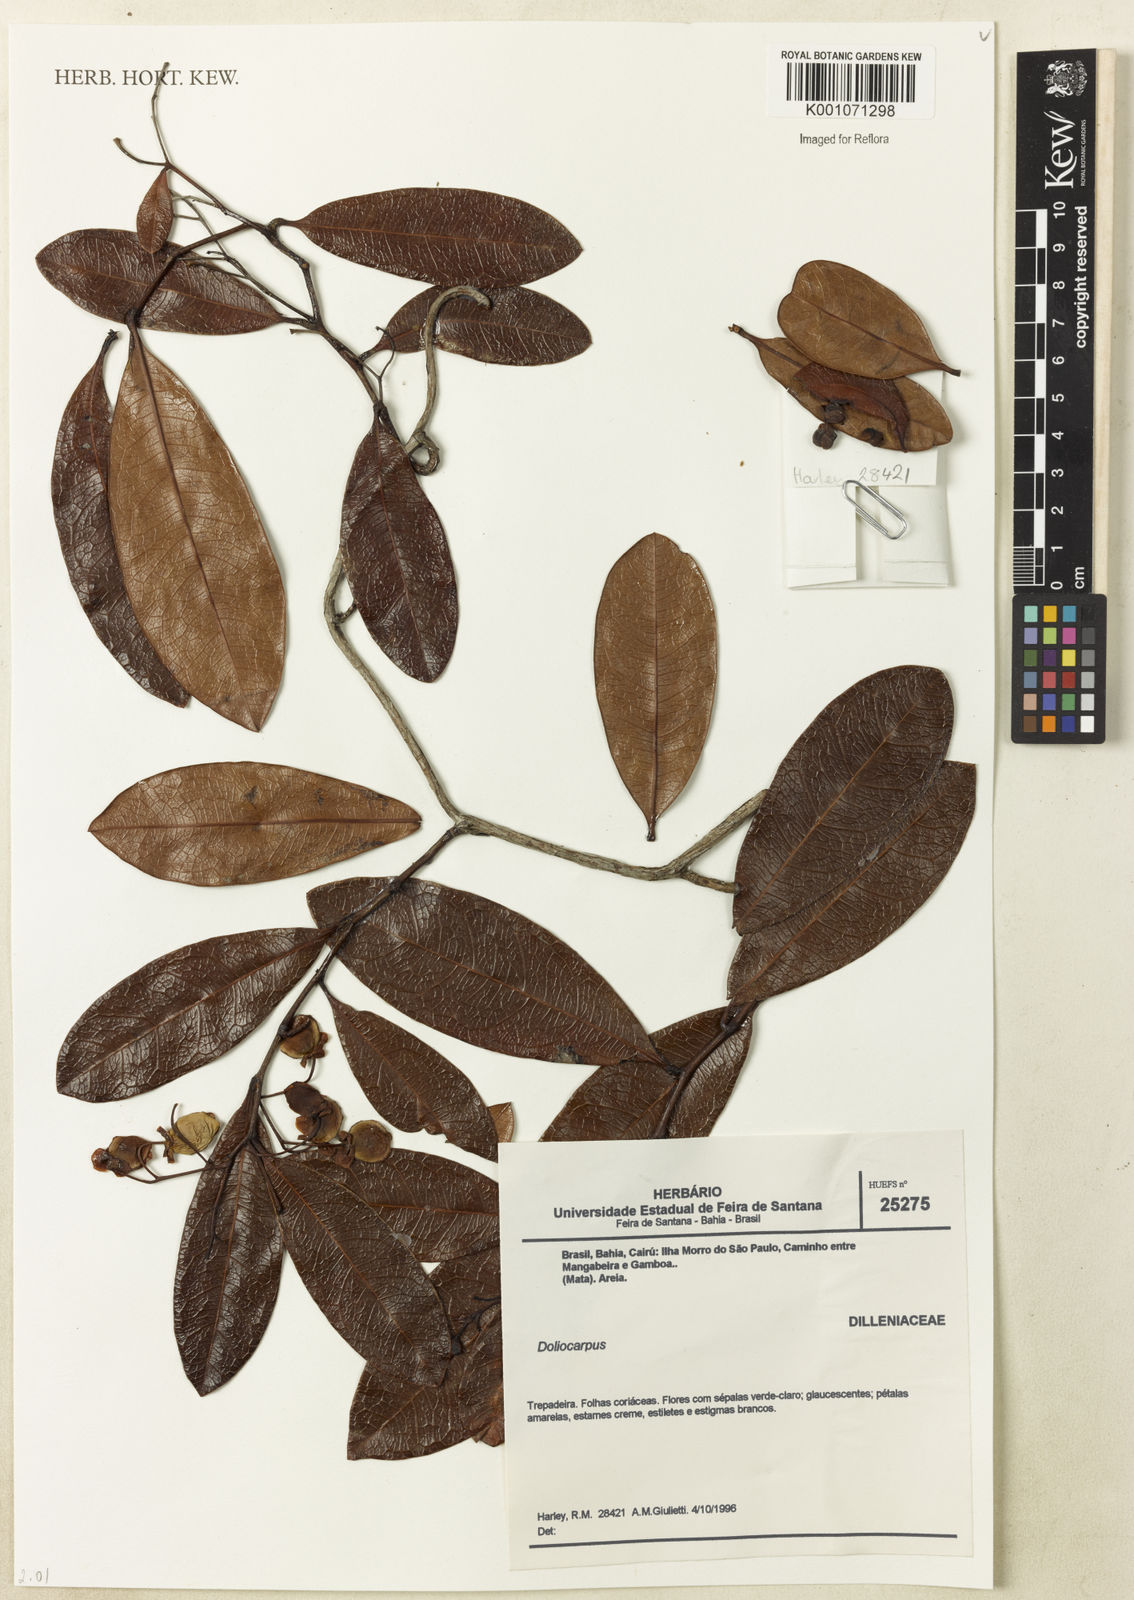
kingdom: Plantae
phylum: Tracheophyta
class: Magnoliopsida
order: Dilleniales
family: Dilleniaceae
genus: Doliocarpus
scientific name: Doliocarpus
